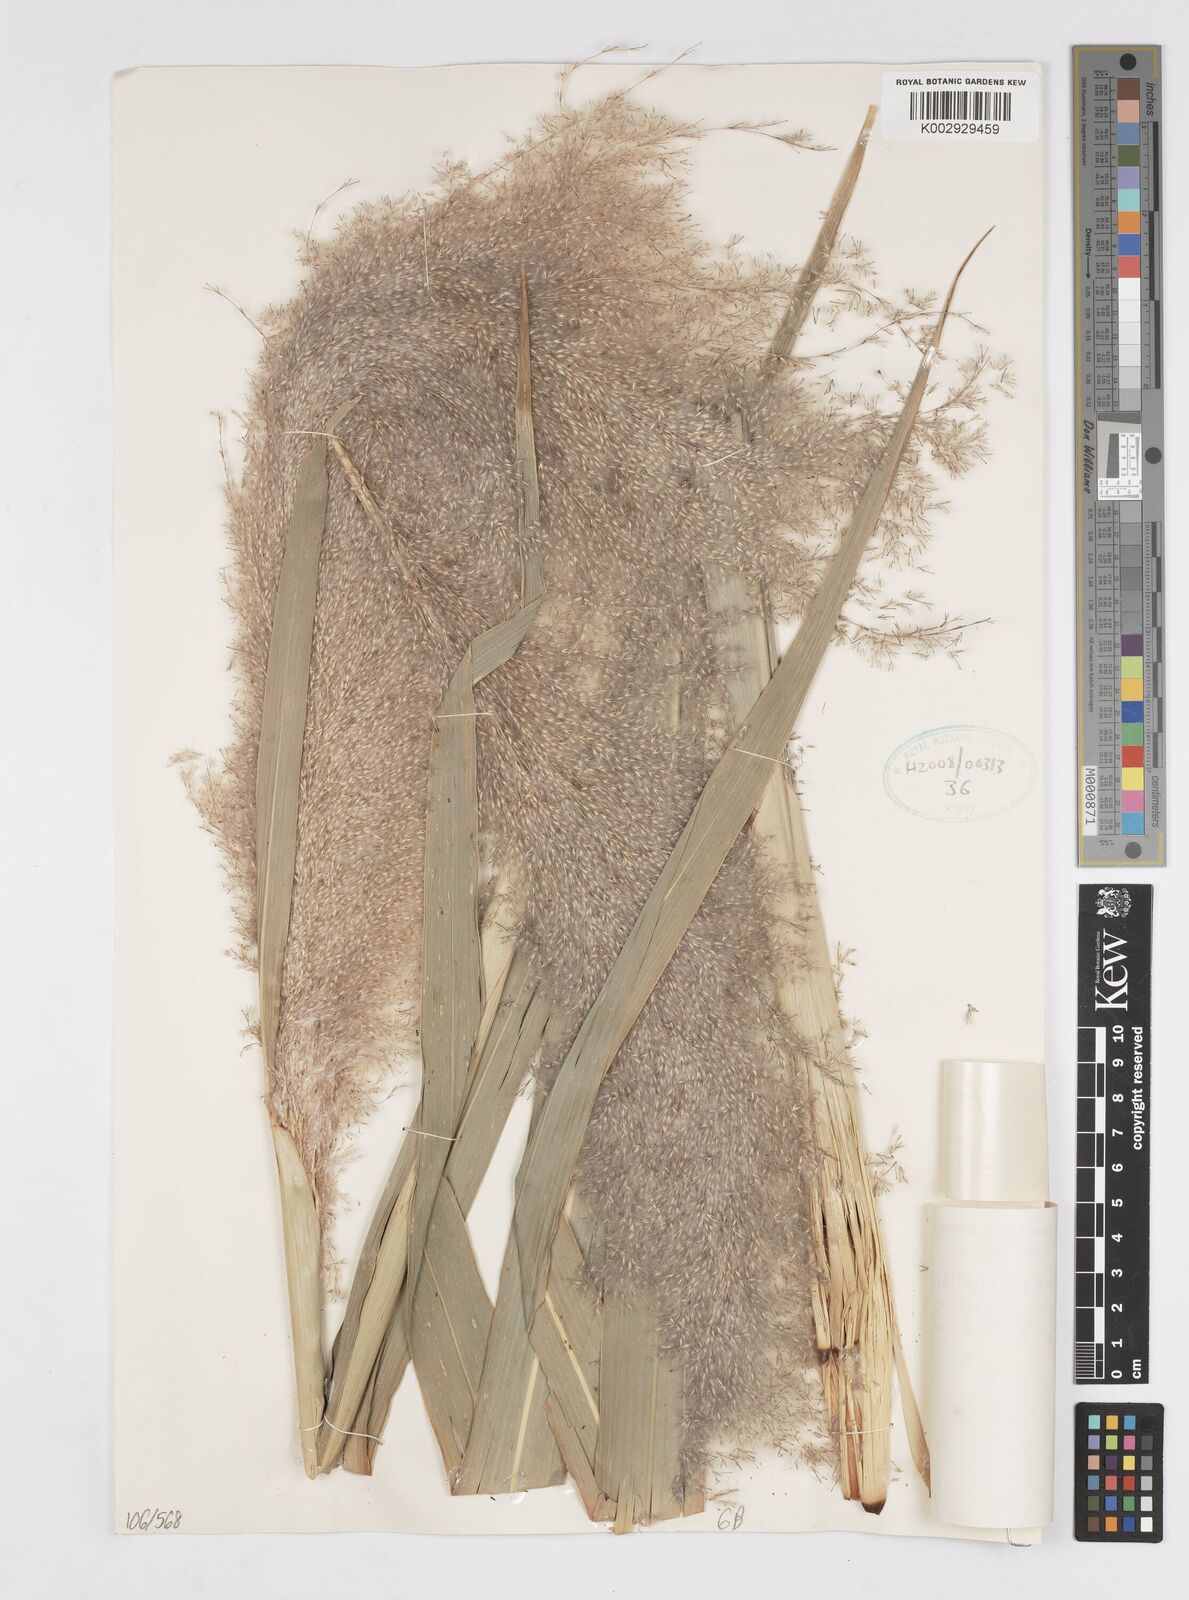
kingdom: Plantae
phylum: Tracheophyta
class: Liliopsida
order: Poales
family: Poaceae
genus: Saccharum
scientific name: Saccharum spontaneum
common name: Wild sugarcane
